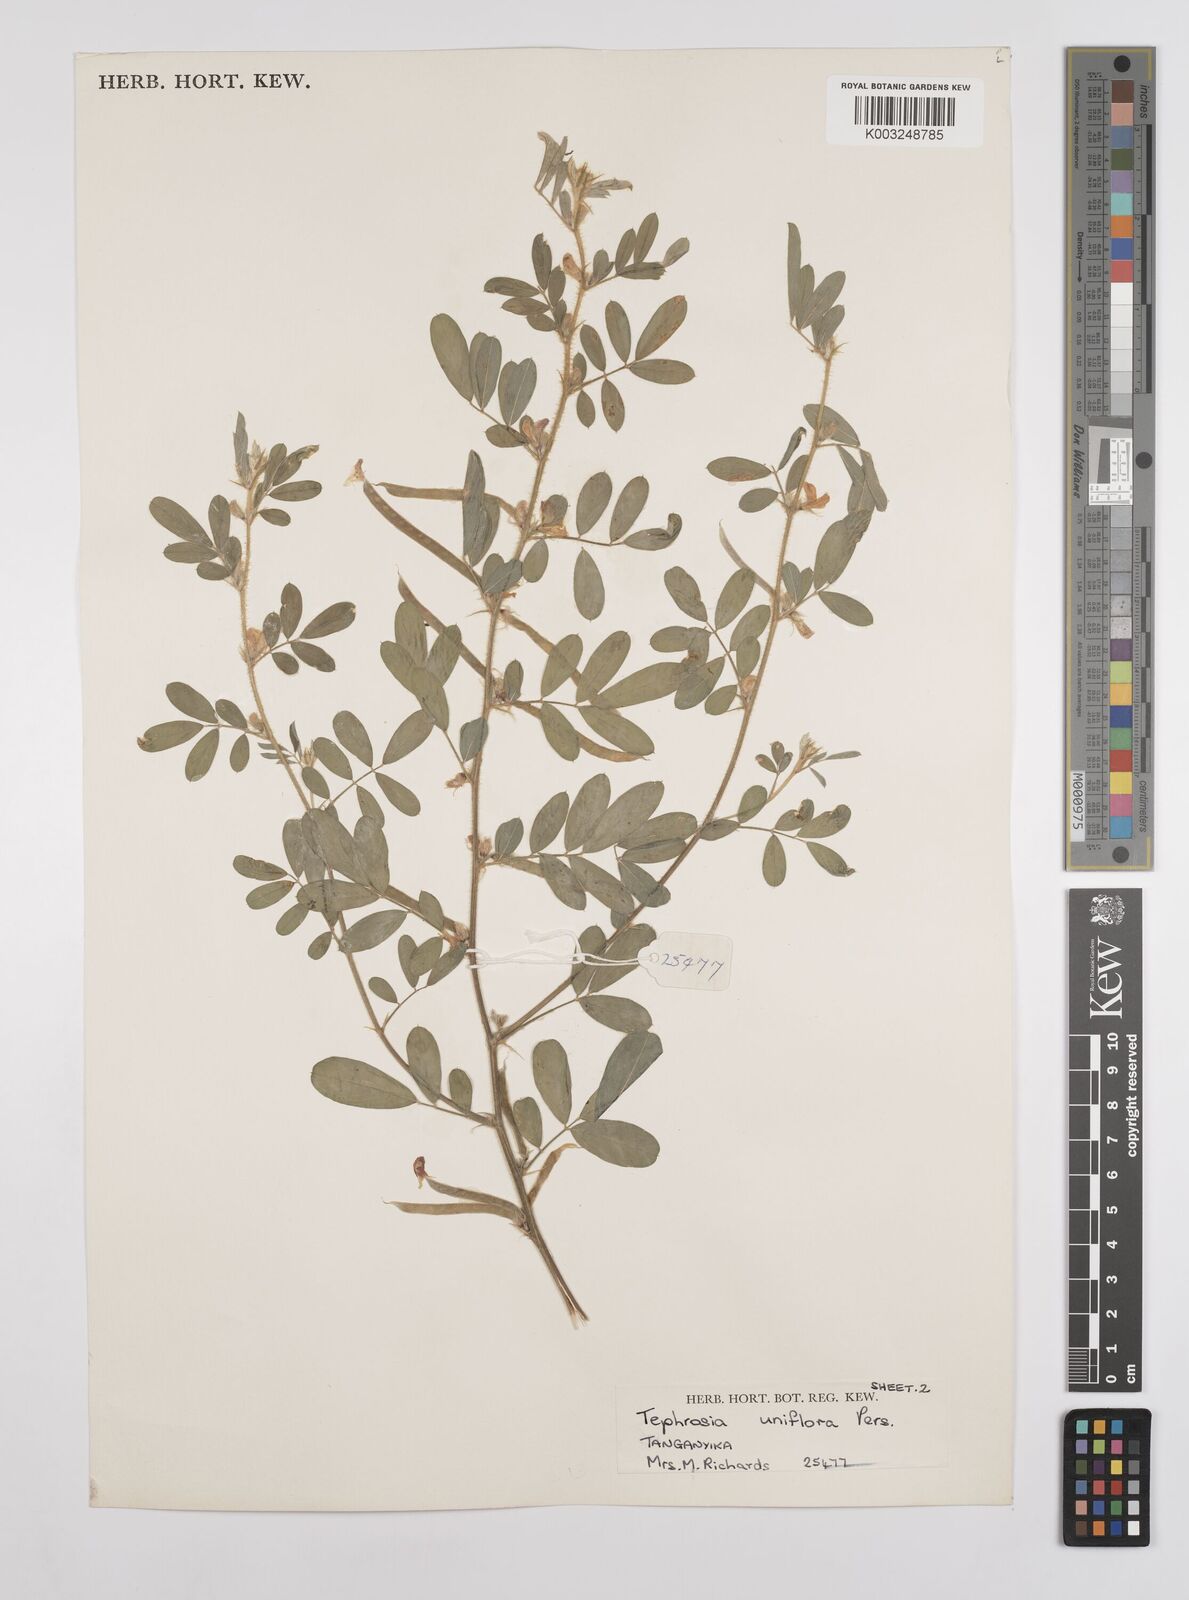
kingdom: Plantae
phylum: Tracheophyta
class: Magnoliopsida
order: Fabales
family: Fabaceae
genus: Tephrosia
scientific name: Tephrosia uniflora
